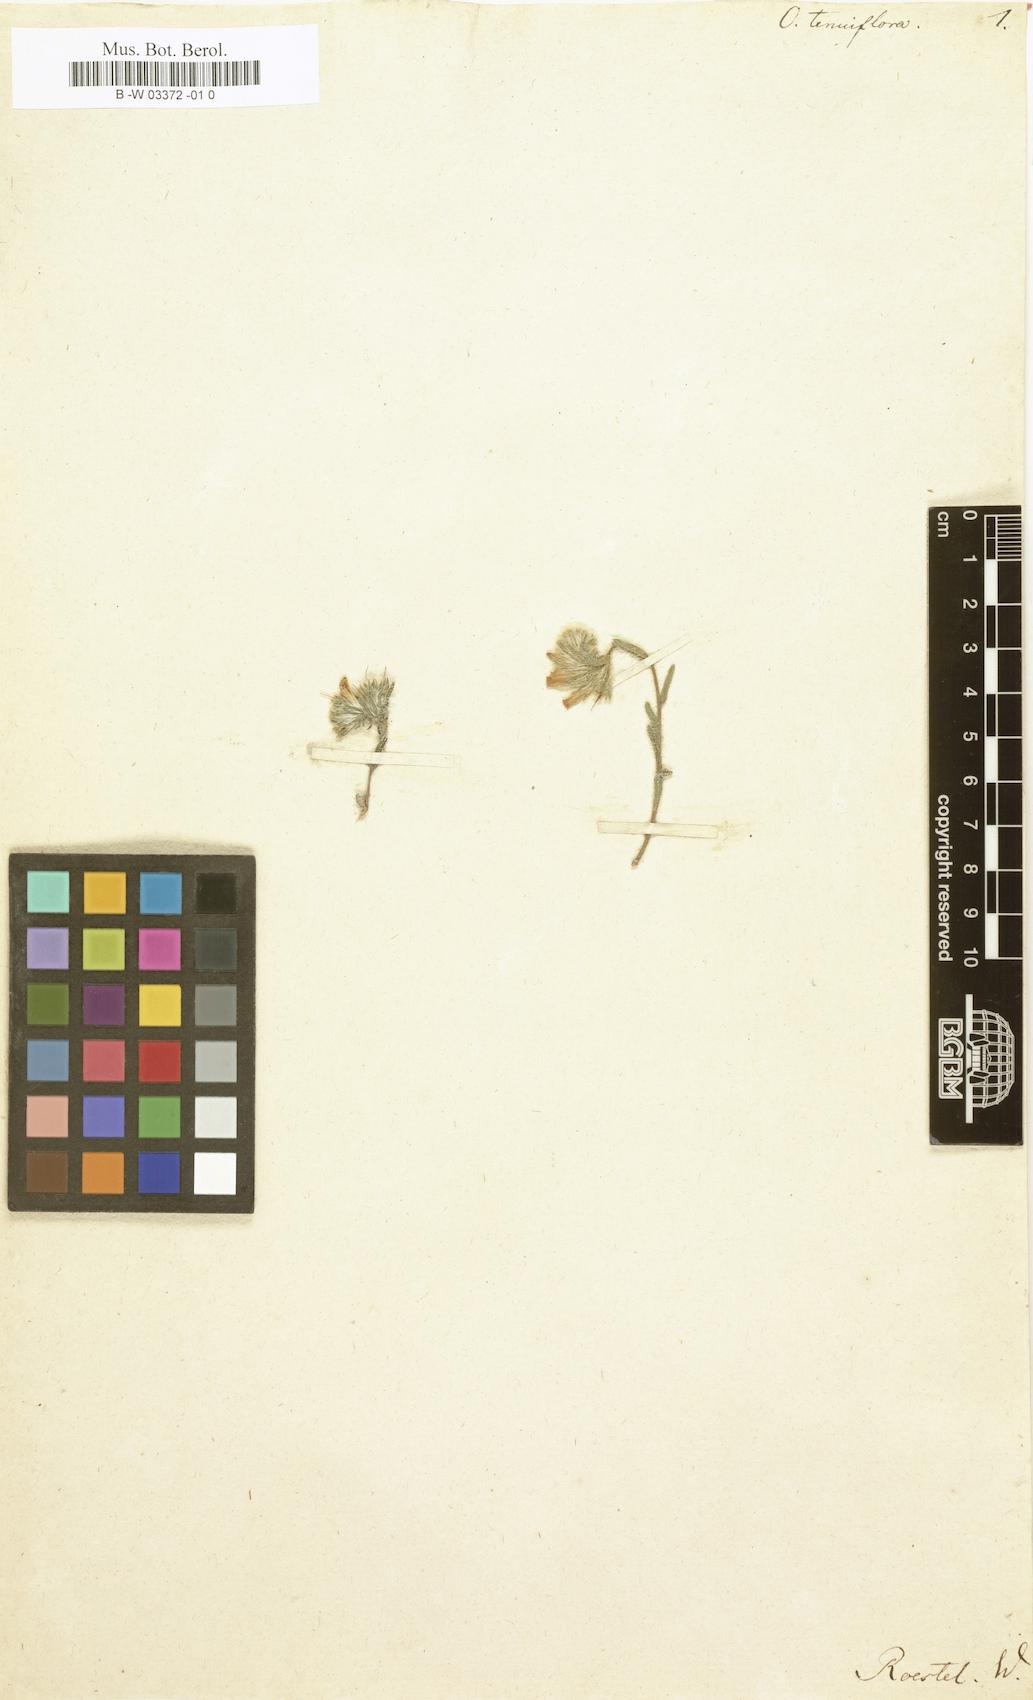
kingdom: Plantae
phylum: Tracheophyta
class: Magnoliopsida
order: Boraginales
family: Boraginaceae
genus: Onosma
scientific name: Onosma tenuiflora
